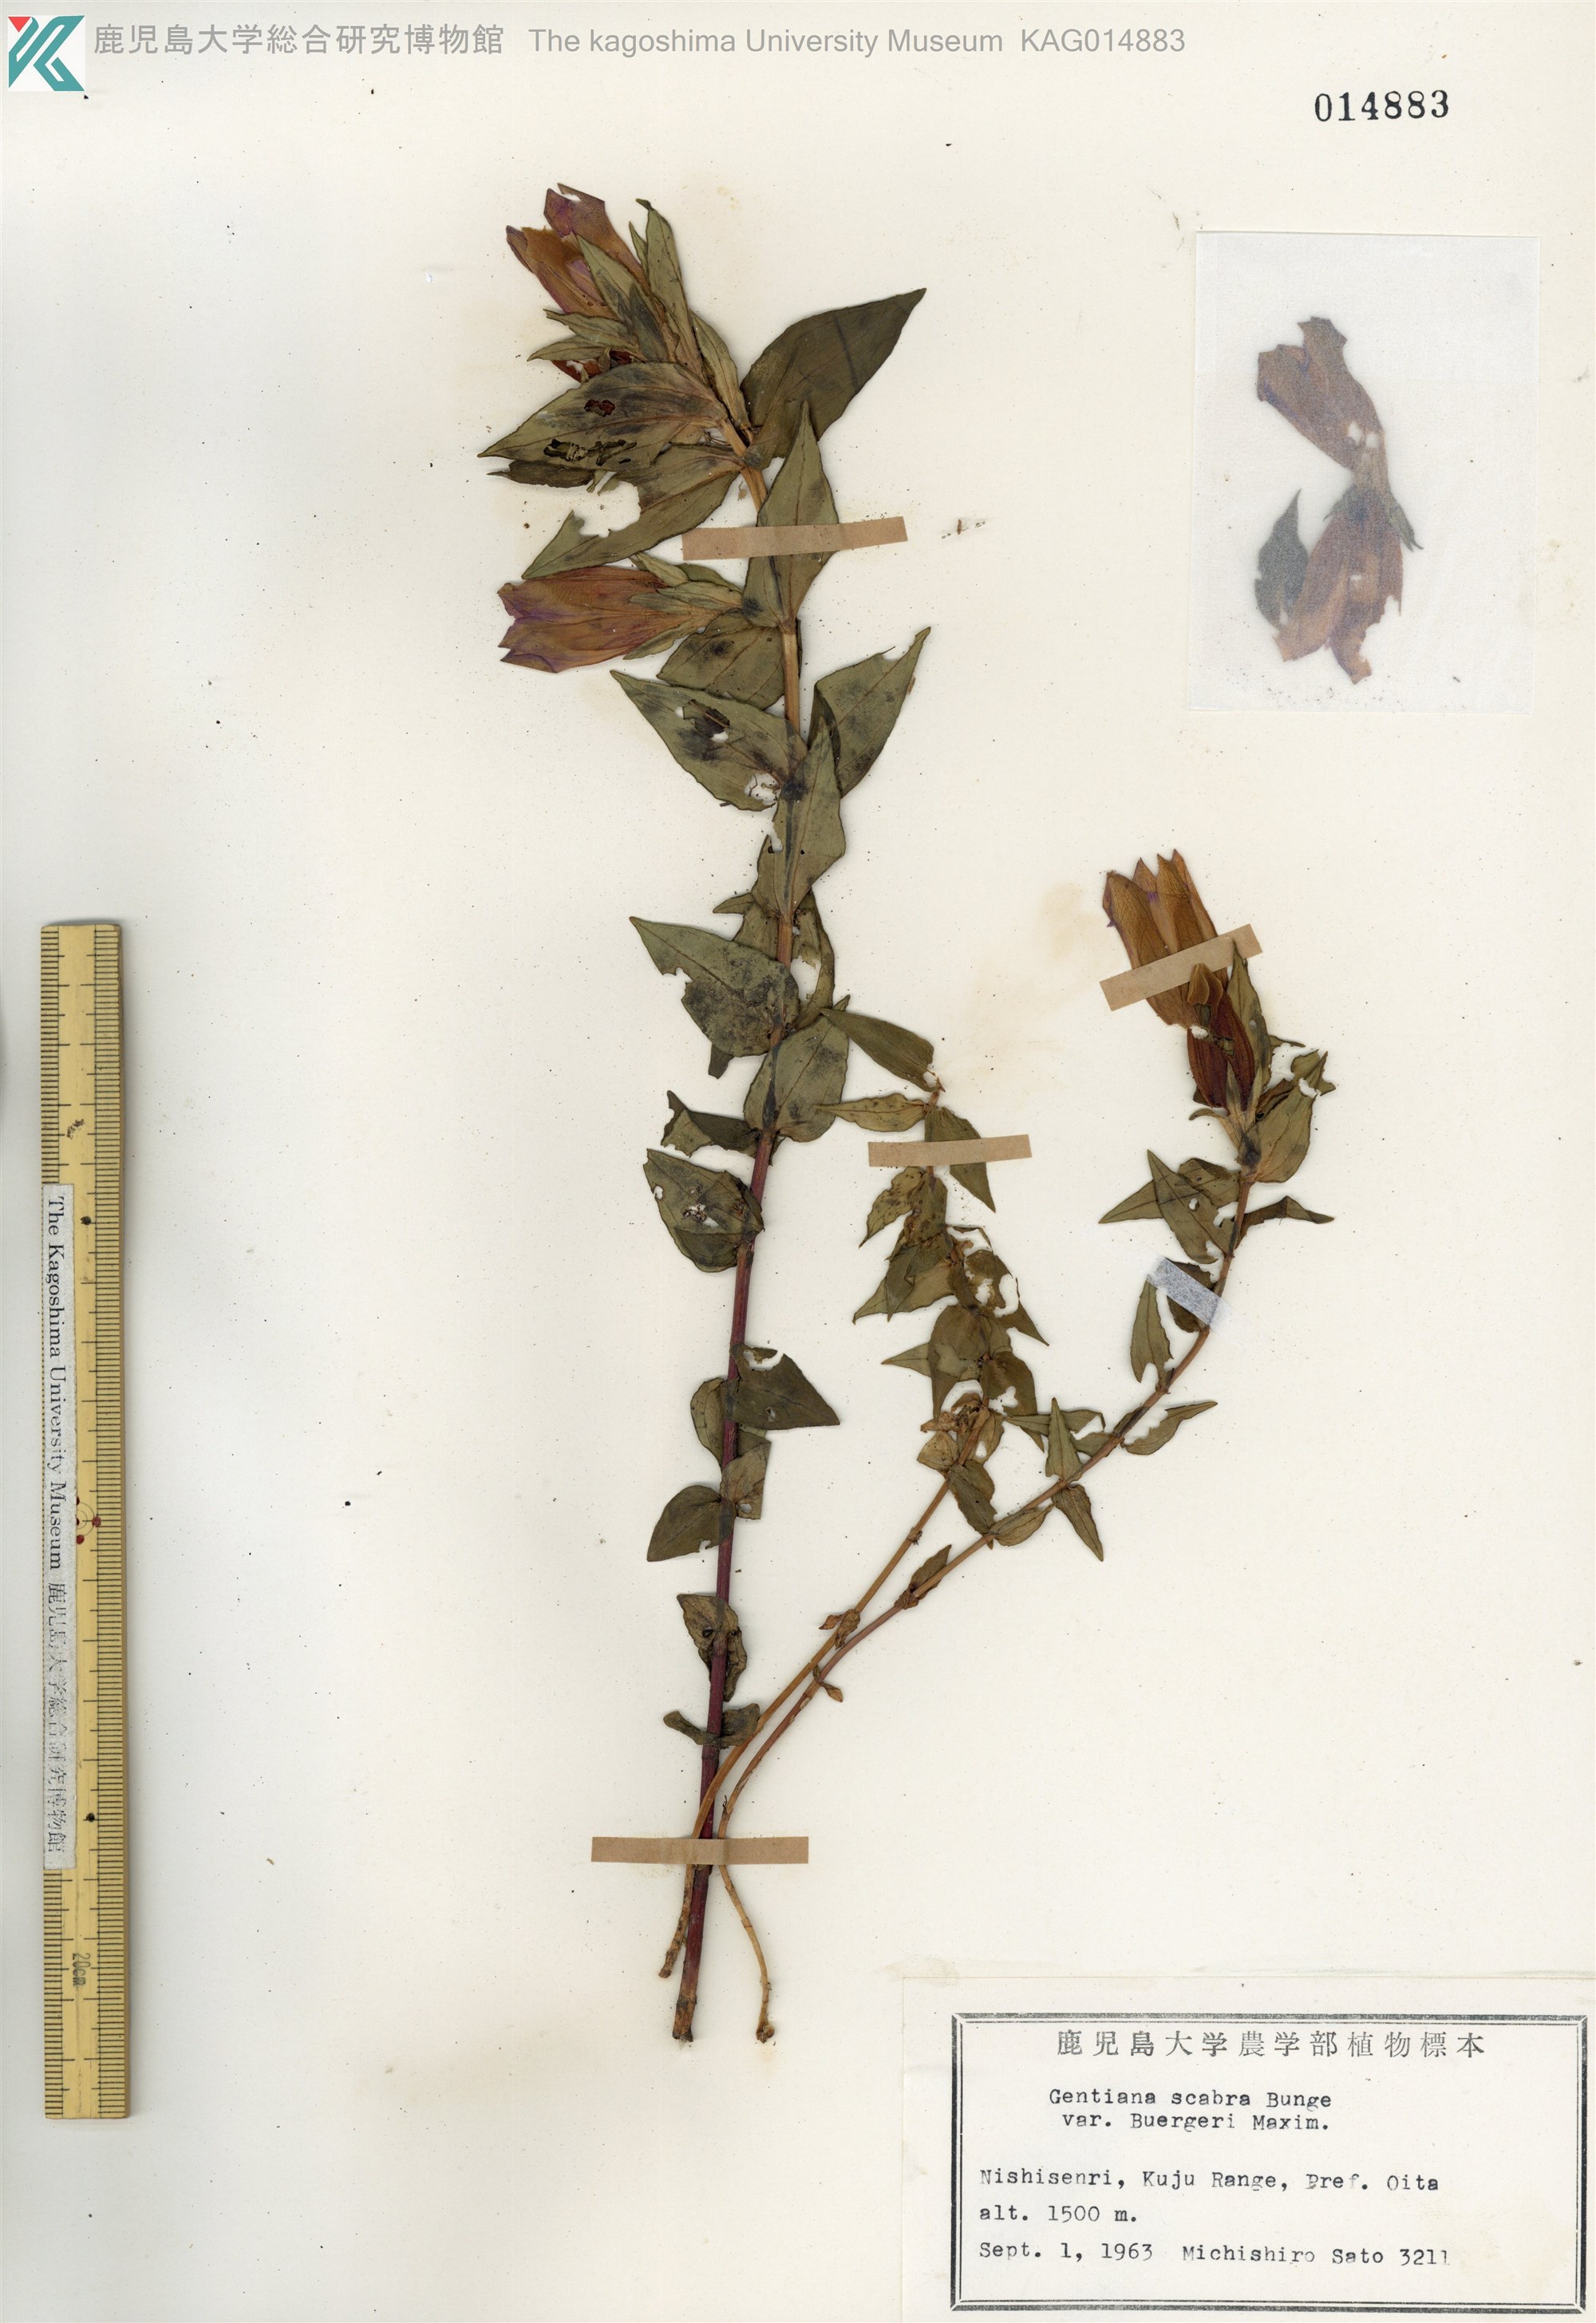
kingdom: Plantae
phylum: Tracheophyta
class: Magnoliopsida
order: Gentianales
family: Gentianaceae
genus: Gentiana
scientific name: Gentiana scabra
